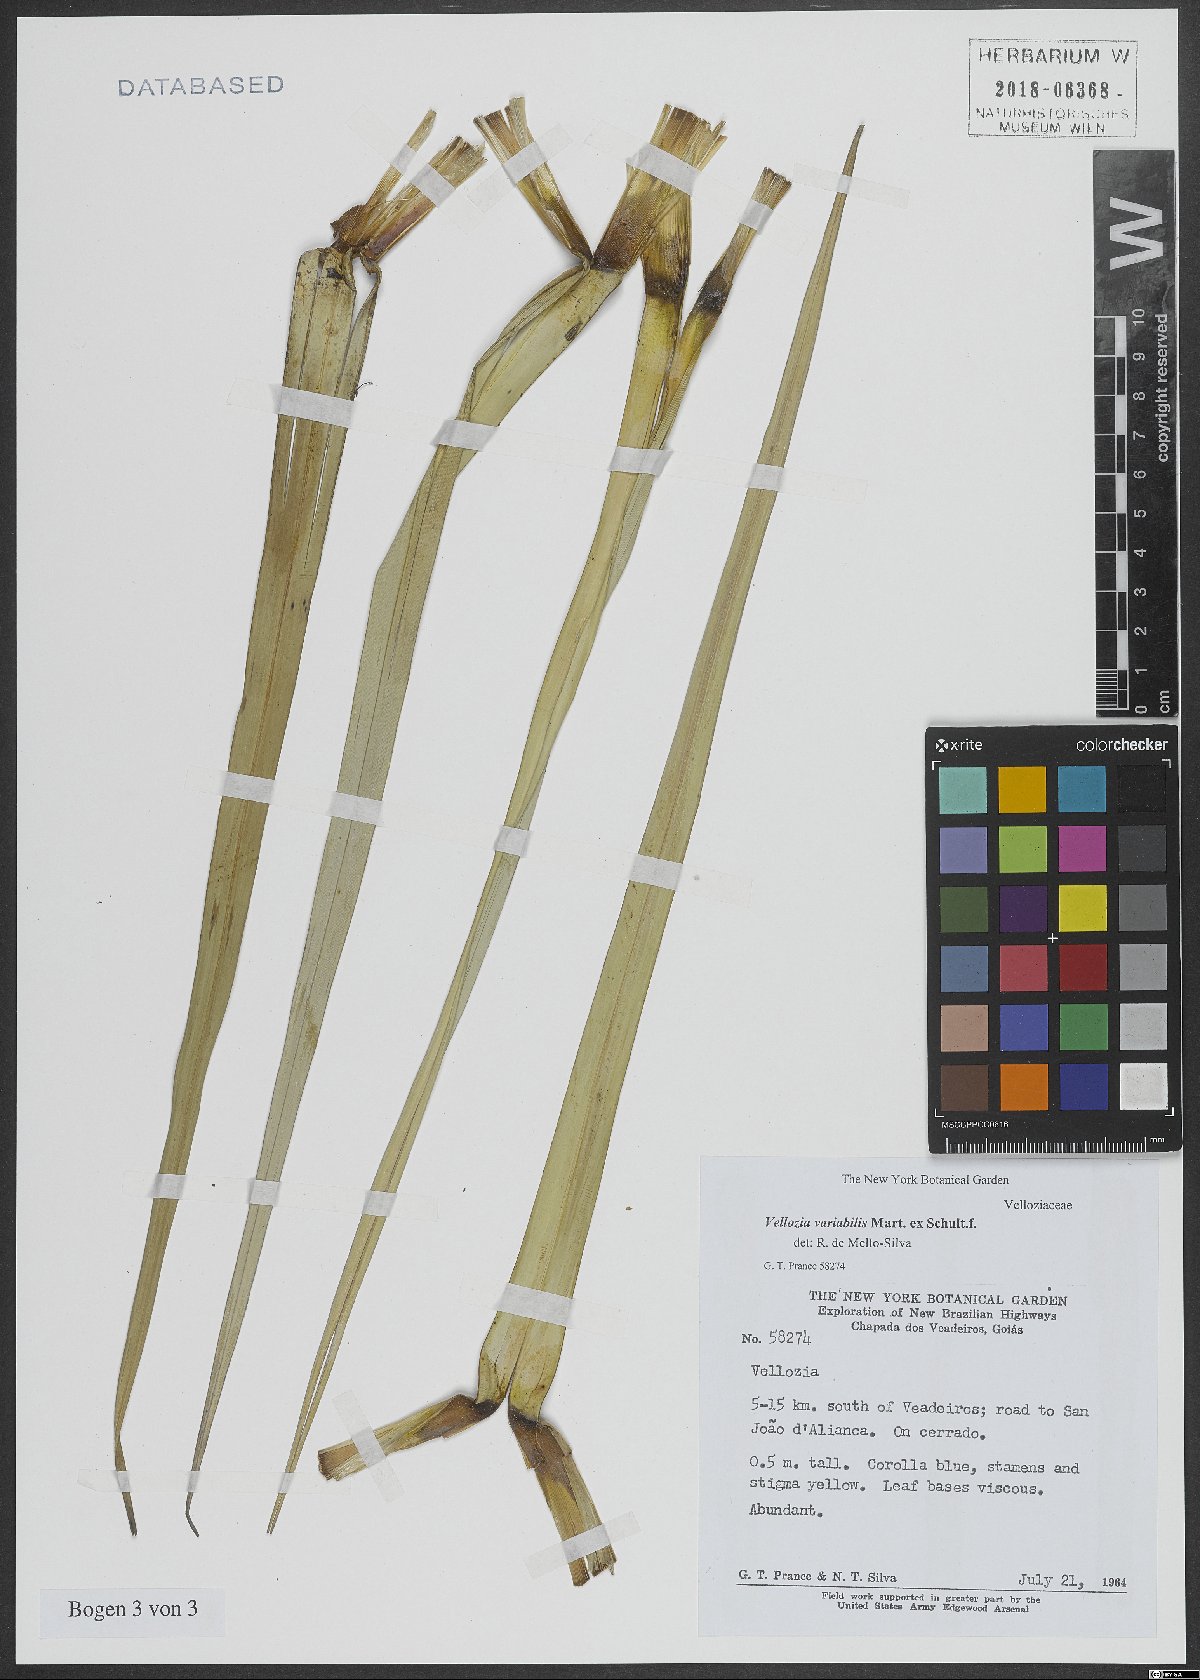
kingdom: Plantae
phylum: Tracheophyta
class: Liliopsida
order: Pandanales
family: Velloziaceae
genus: Vellozia
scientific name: Vellozia variabilis
